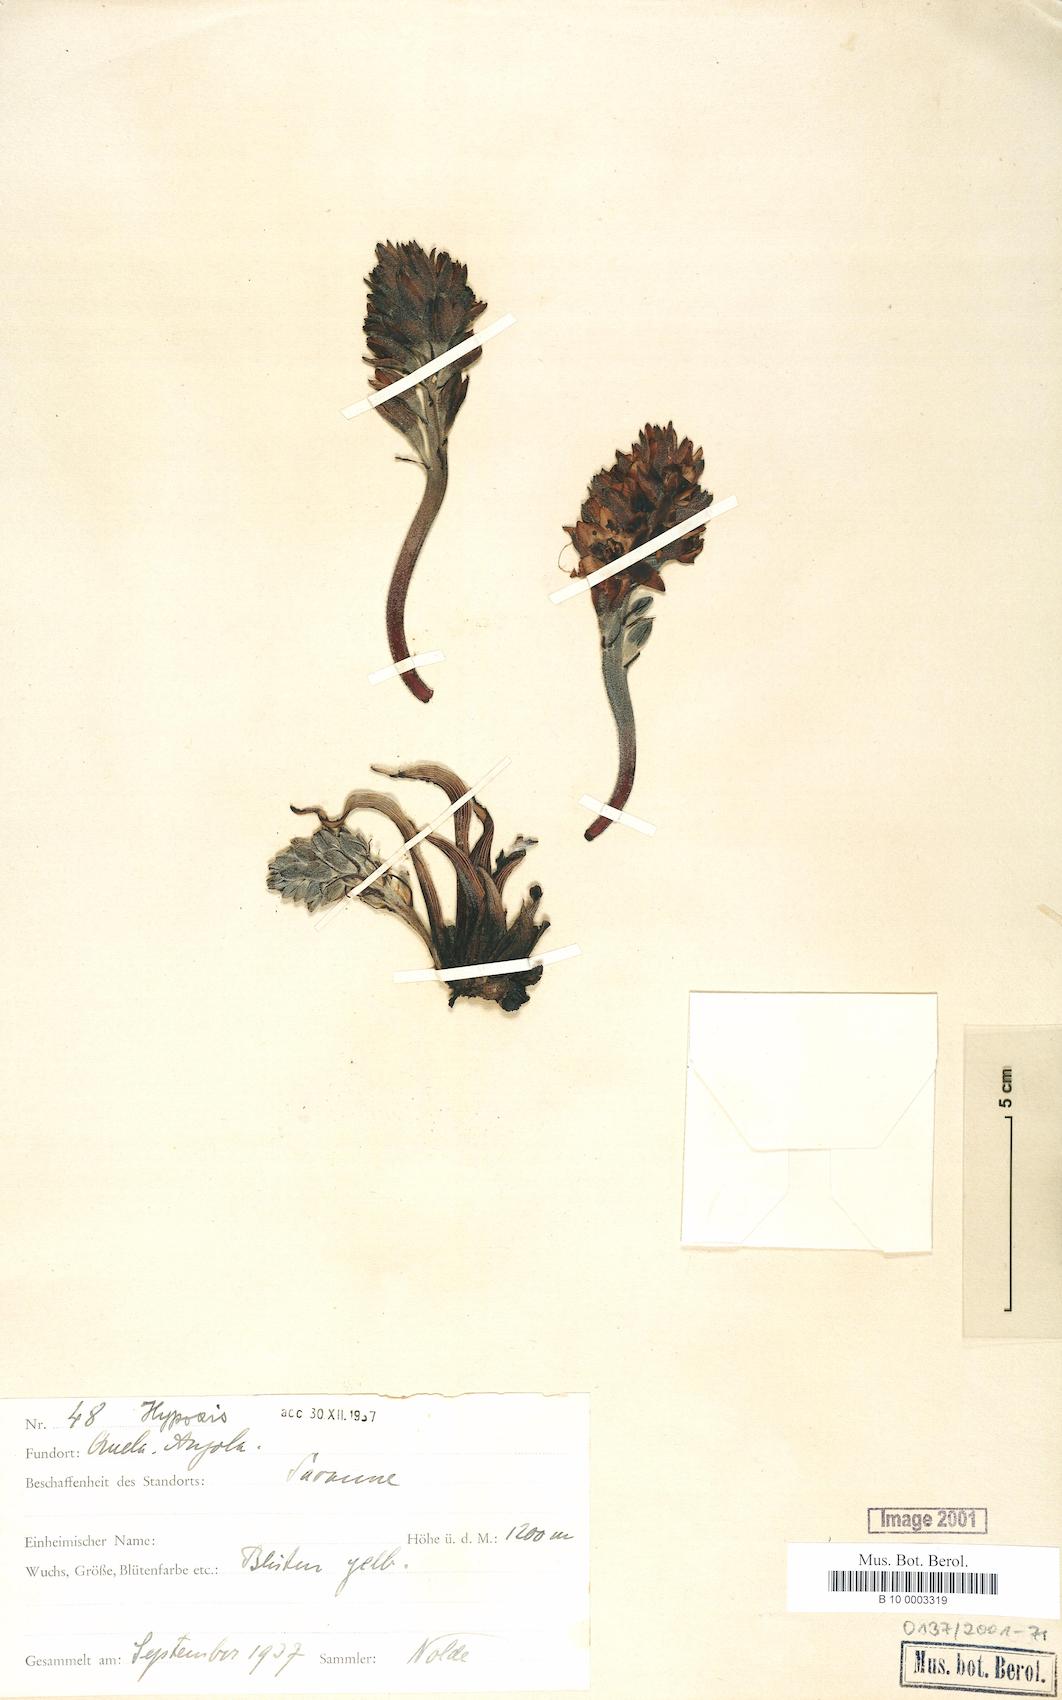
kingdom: Plantae
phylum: Tracheophyta
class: Liliopsida
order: Asparagales
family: Hypoxidaceae
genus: Hypoxis
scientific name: Hypoxis
